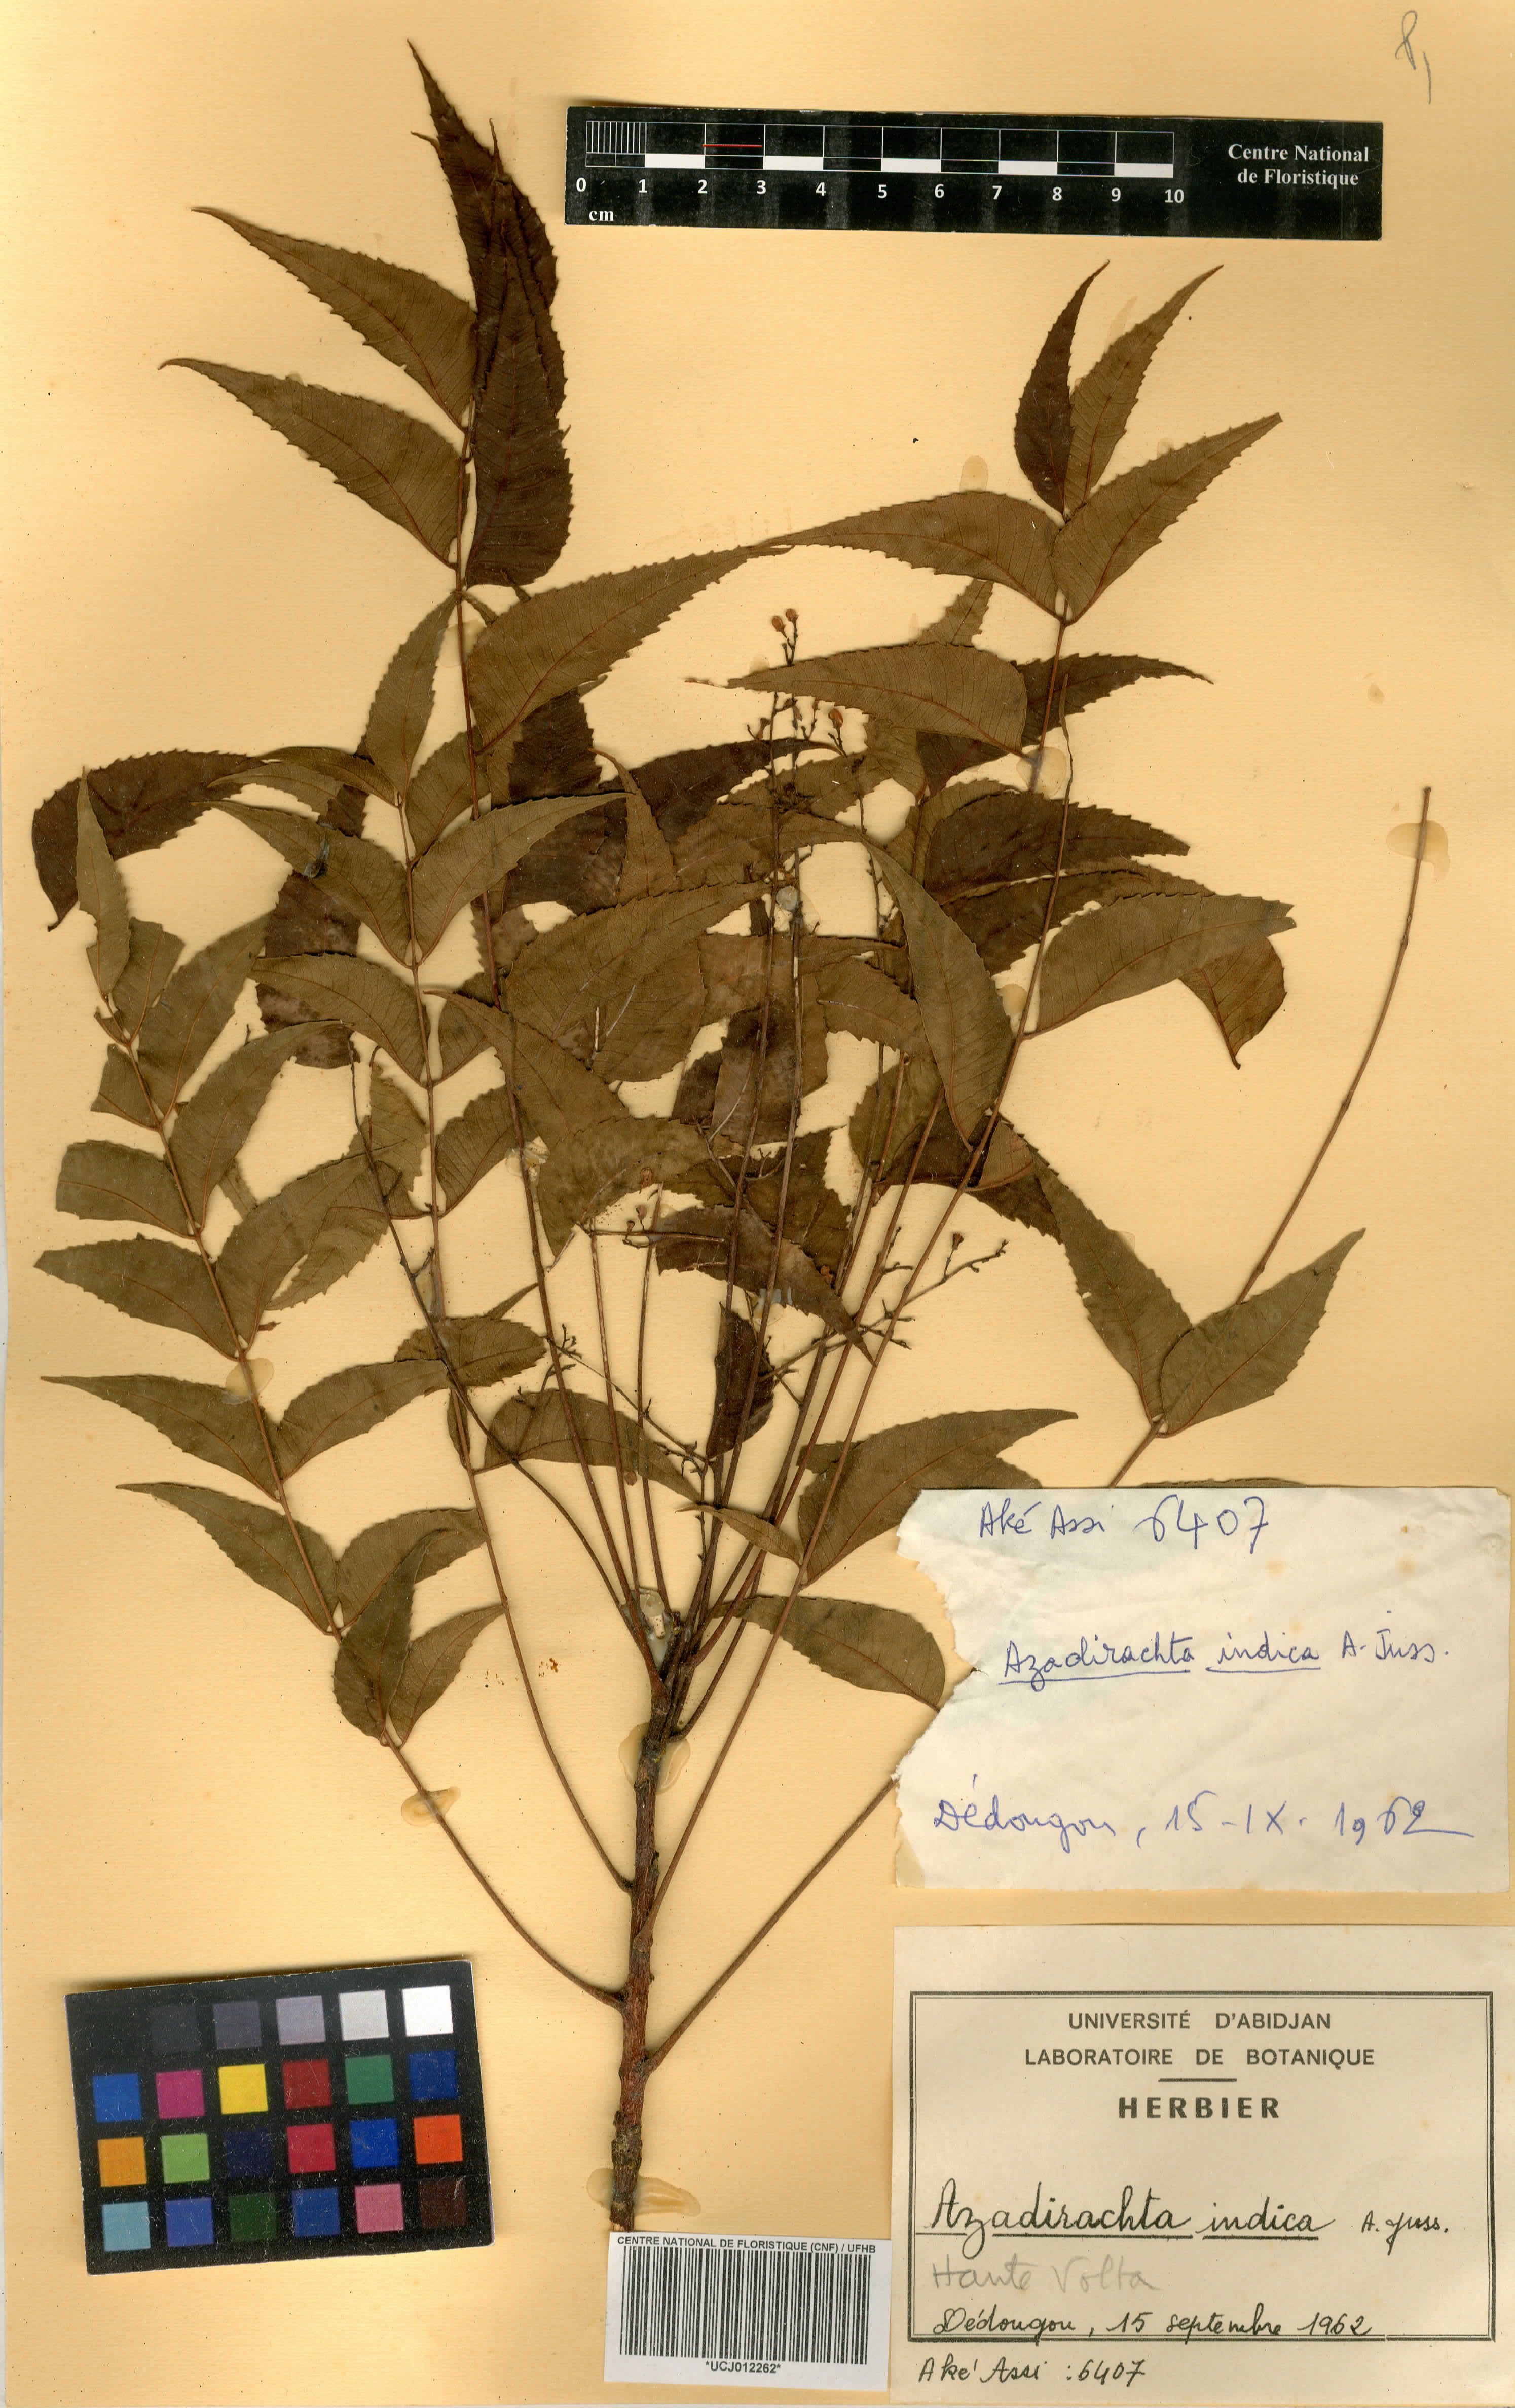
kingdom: Plantae
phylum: Tracheophyta
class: Magnoliopsida
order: Sapindales
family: Meliaceae
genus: Azadirachta
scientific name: Azadirachta indica
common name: Neem
